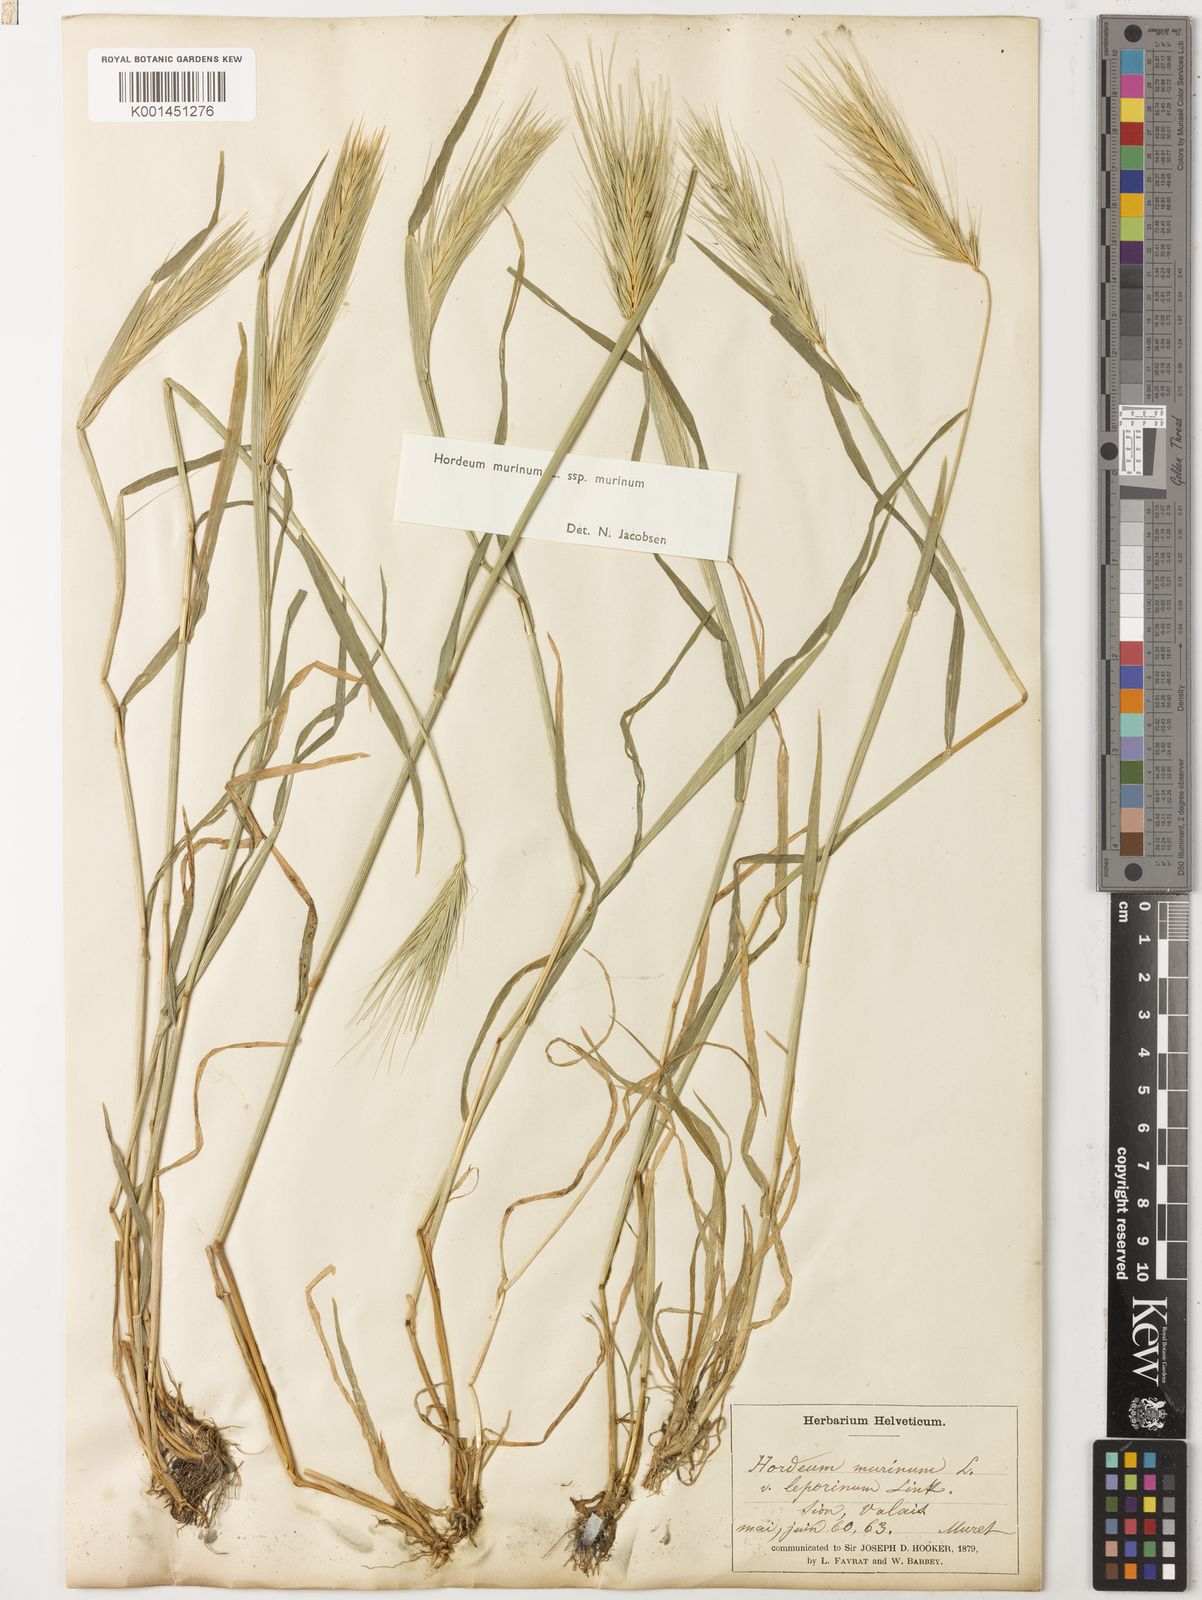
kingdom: Plantae
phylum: Tracheophyta
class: Liliopsida
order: Poales
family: Poaceae
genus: Hordeum
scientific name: Hordeum murinum
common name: Wall barley
